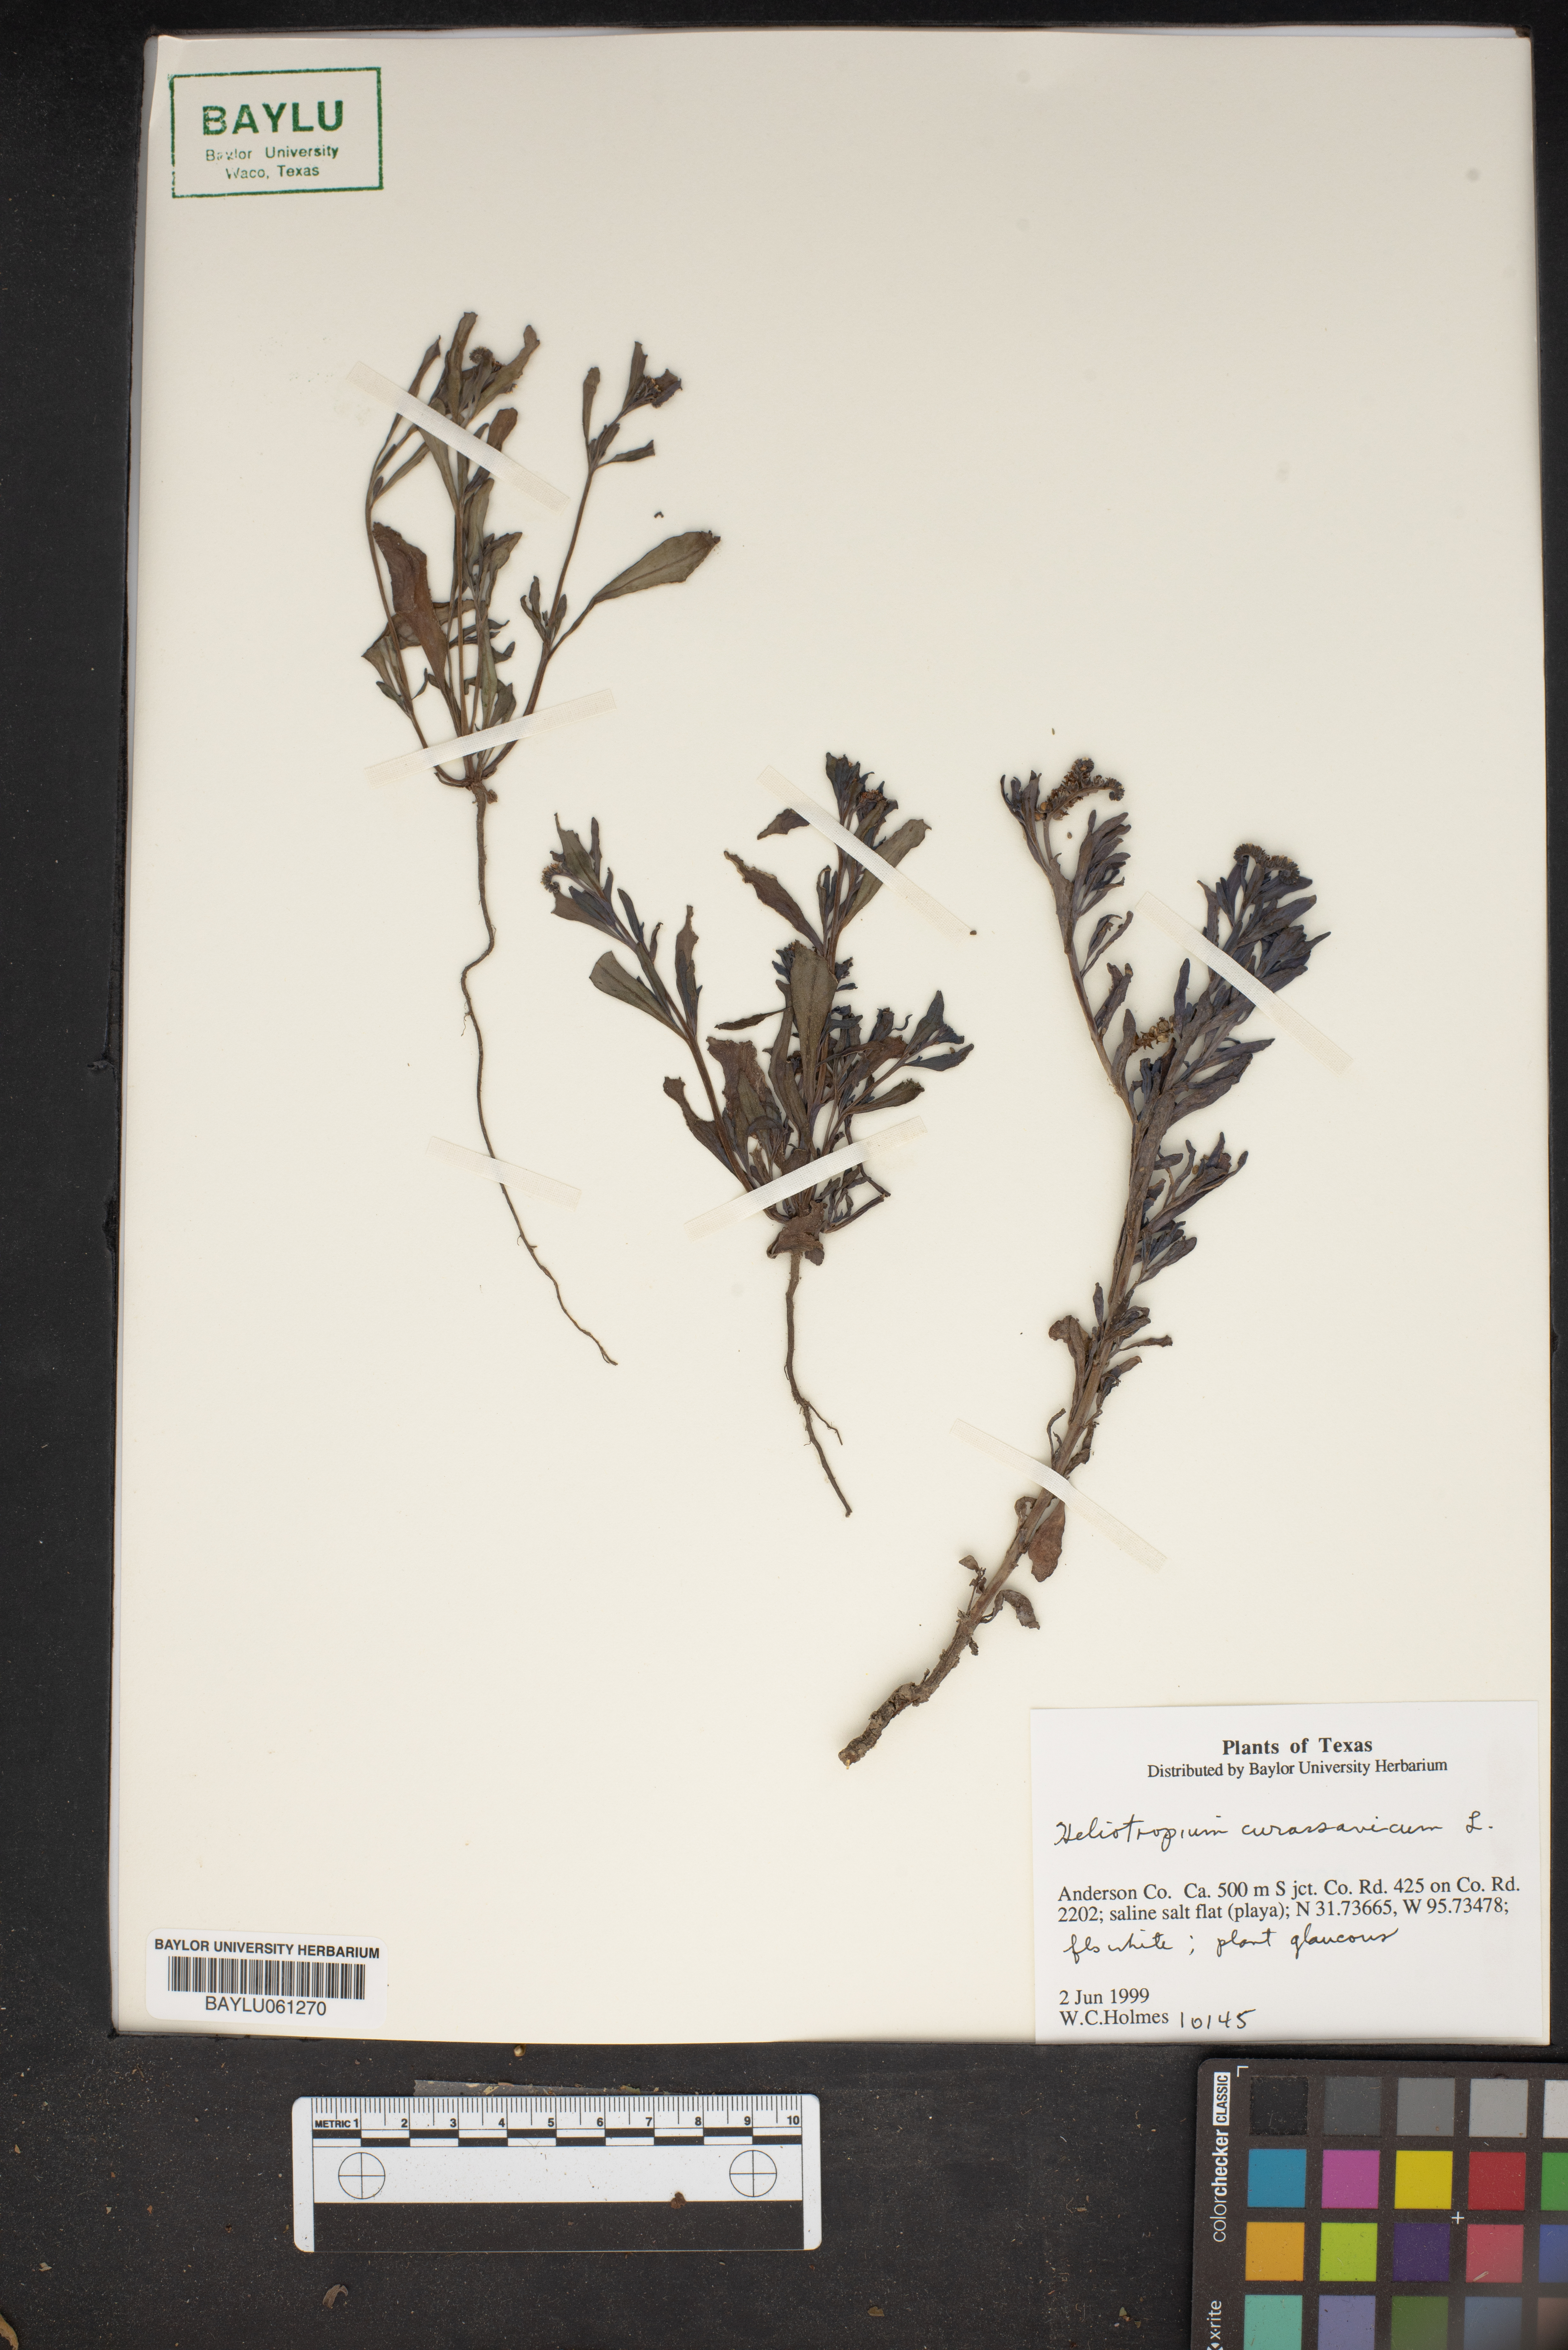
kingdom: Plantae
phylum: Tracheophyta
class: Magnoliopsida
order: Boraginales
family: Heliotropiaceae
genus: Heliotropium
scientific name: Heliotropium curassavicum
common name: Seaside heliotrope
